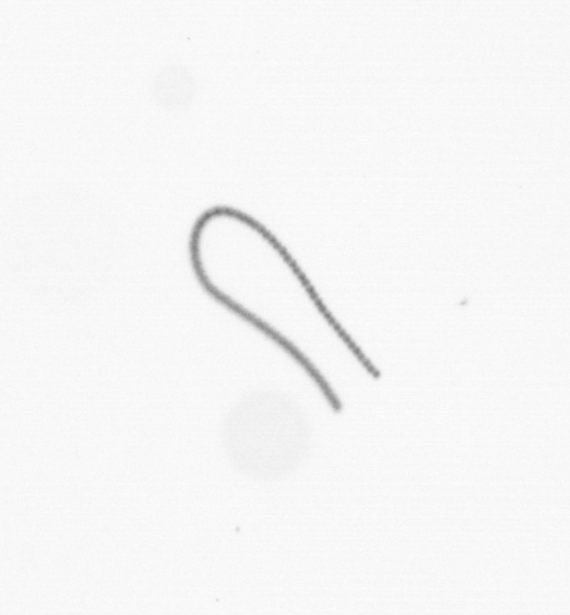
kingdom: Chromista
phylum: Ochrophyta
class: Bacillariophyceae
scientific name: Bacillariophyceae
